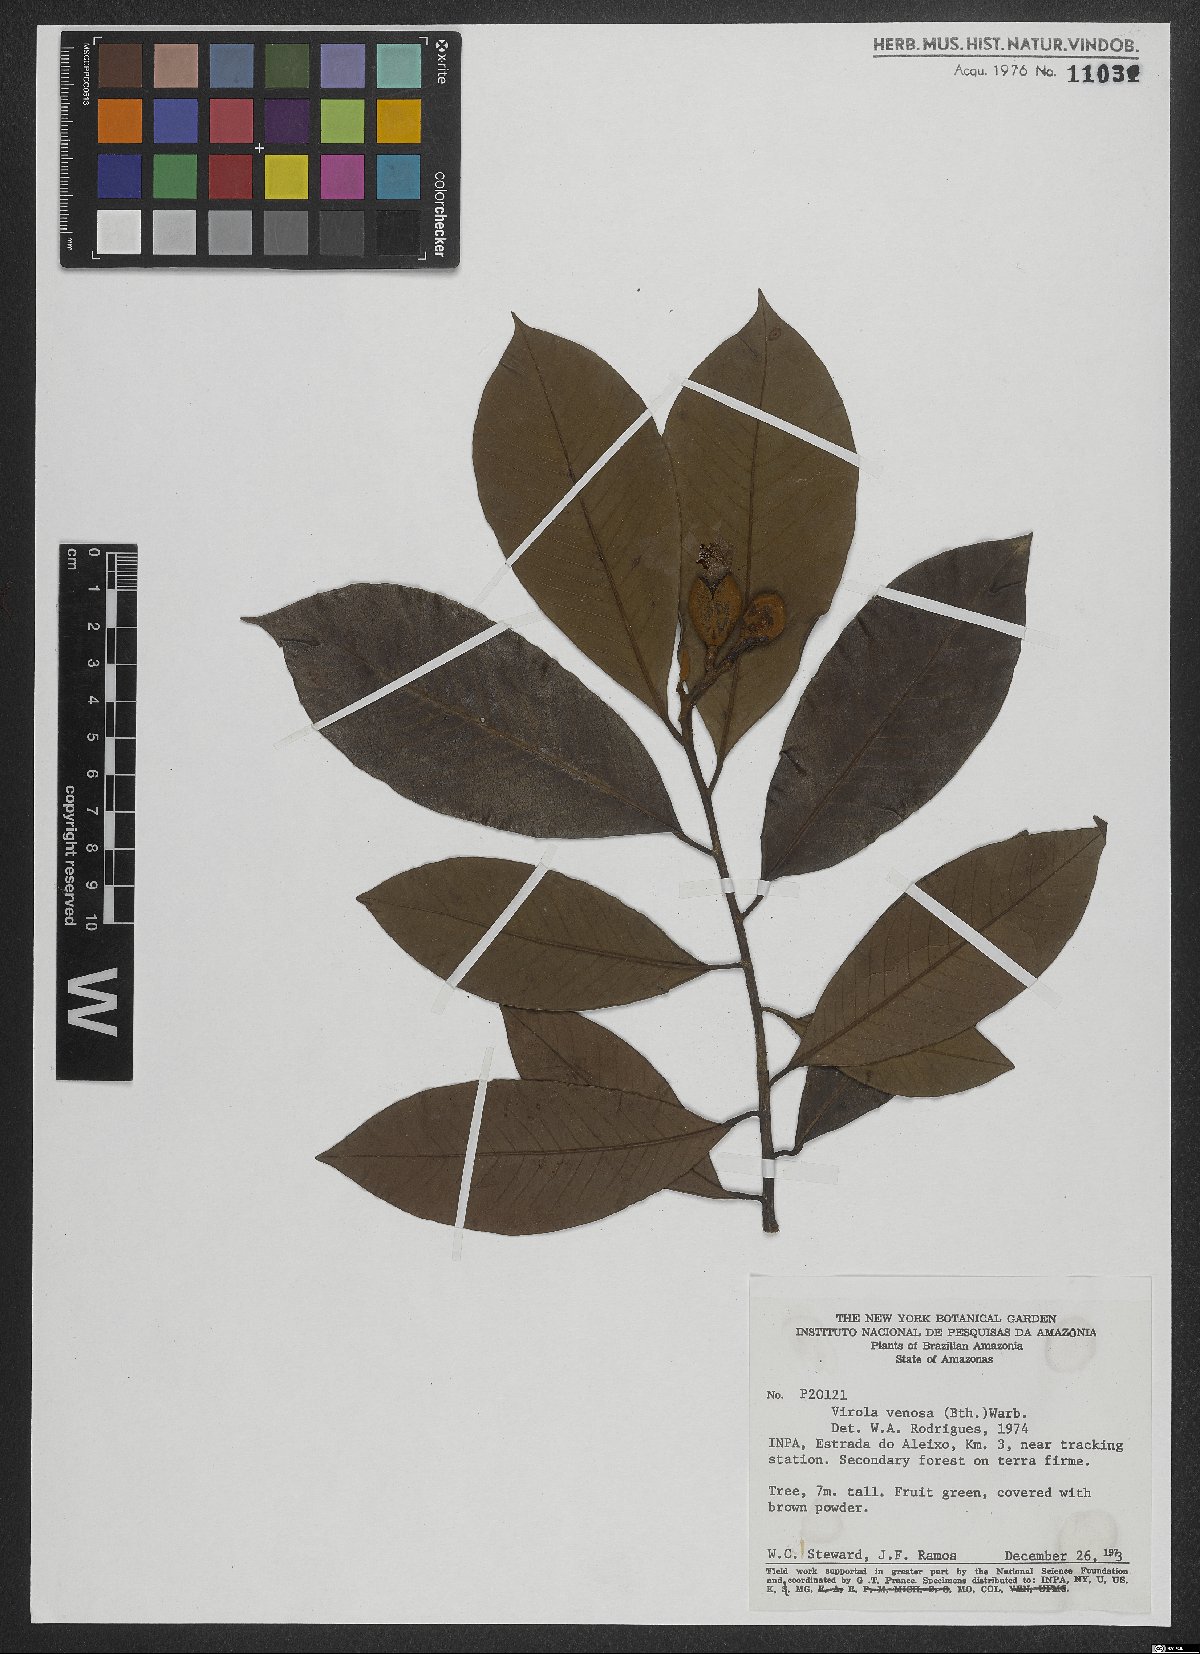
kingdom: Plantae
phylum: Tracheophyta
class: Magnoliopsida
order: Magnoliales
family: Myristicaceae
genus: Virola
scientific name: Virola venosa
